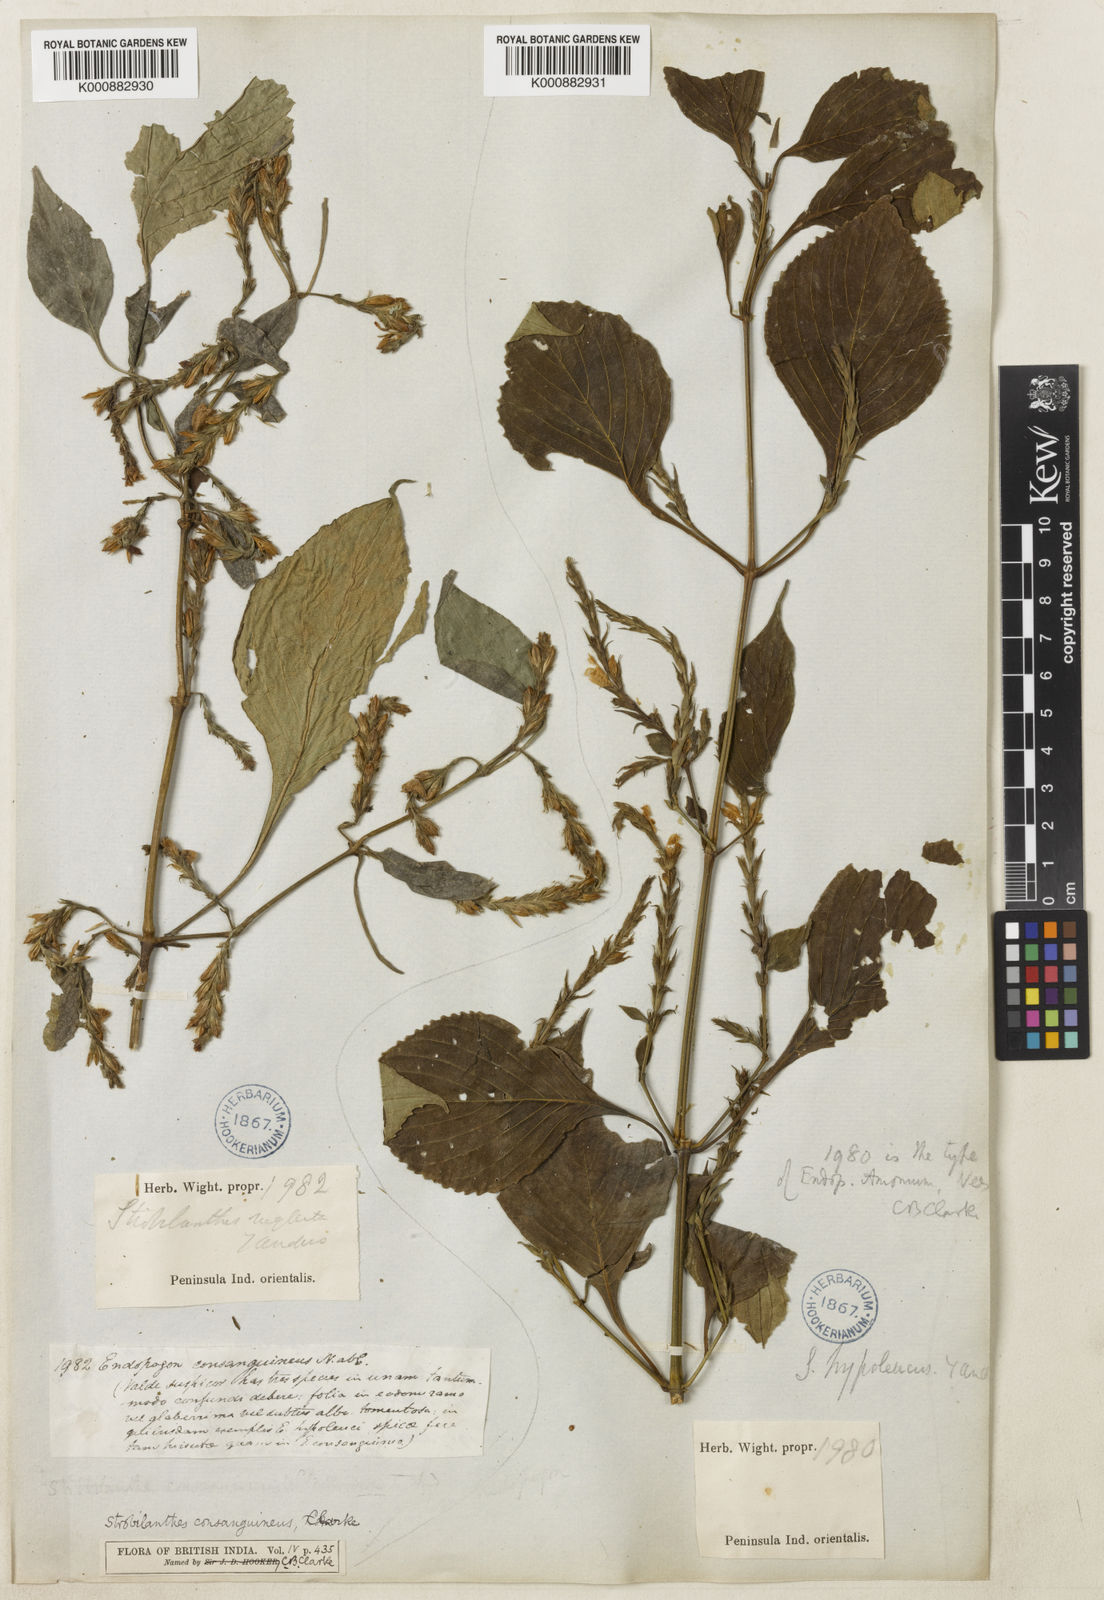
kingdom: Plantae
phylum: Tracheophyta
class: Magnoliopsida
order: Lamiales
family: Acanthaceae
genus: Strobilanthes
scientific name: Strobilanthes diandra
